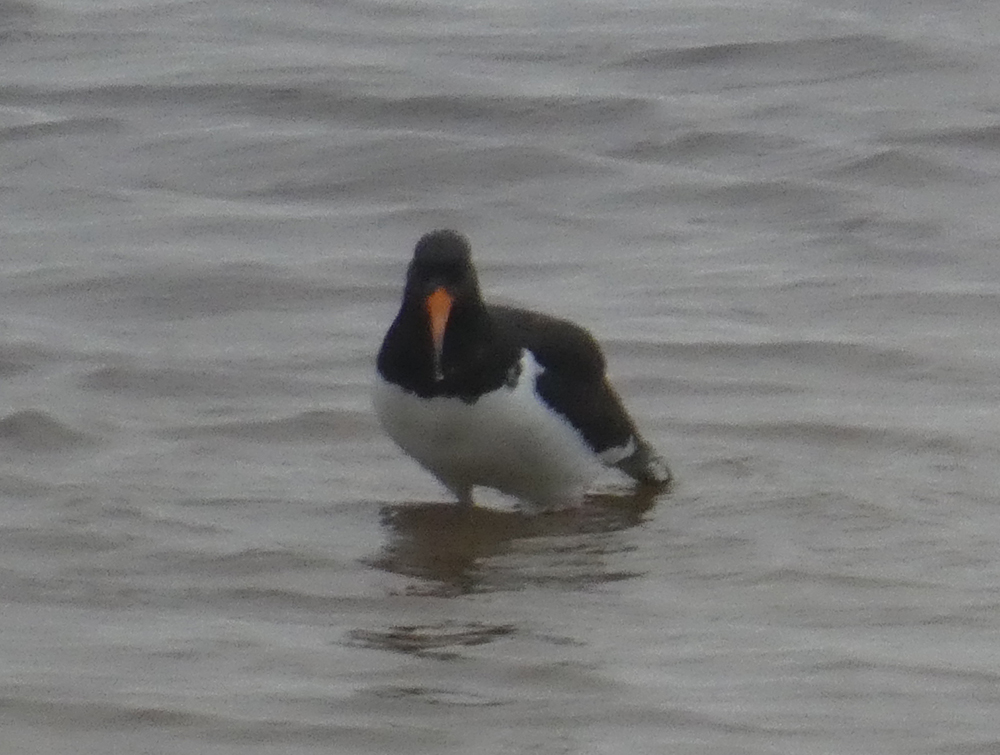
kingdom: Animalia
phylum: Chordata
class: Aves
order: Charadriiformes
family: Haematopodidae
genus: Haematopus
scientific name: Haematopus finschi
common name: South island oystercatcher
